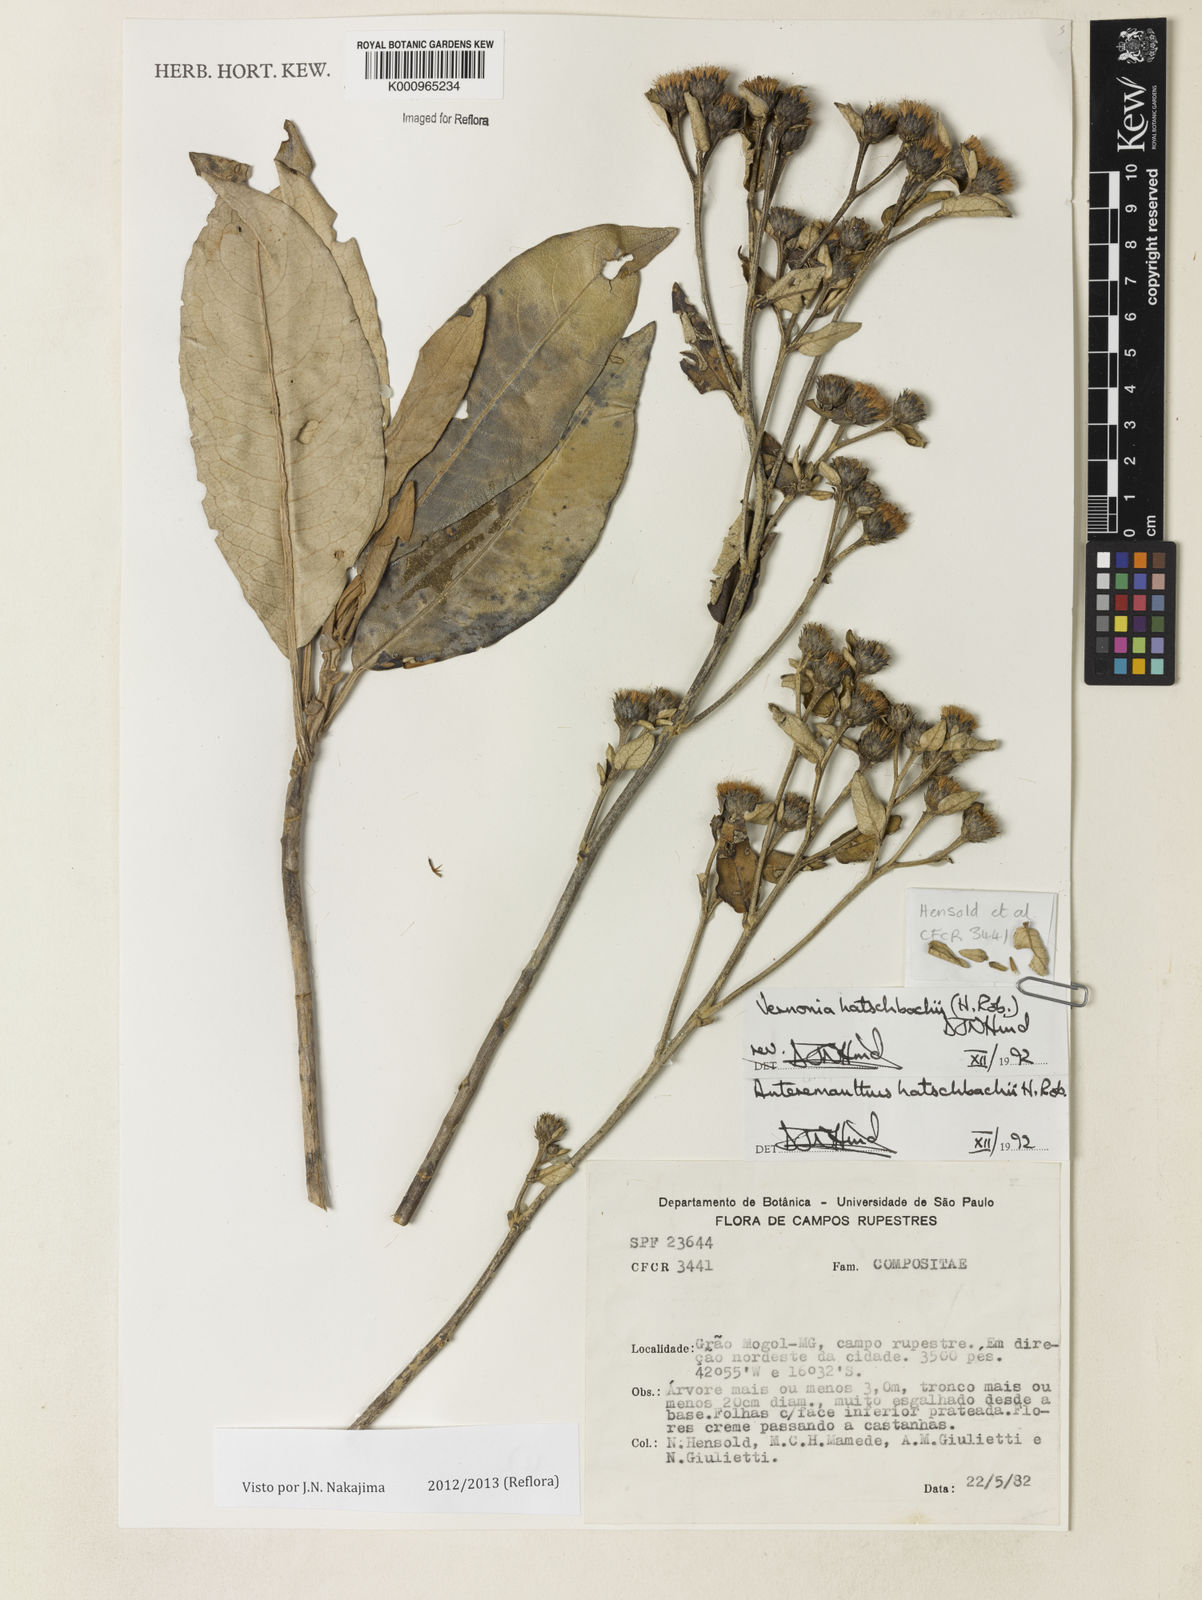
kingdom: Plantae
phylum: Tracheophyta
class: Magnoliopsida
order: Asterales
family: Asteraceae
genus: Anteremanthus
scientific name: Anteremanthus hatschbachii
